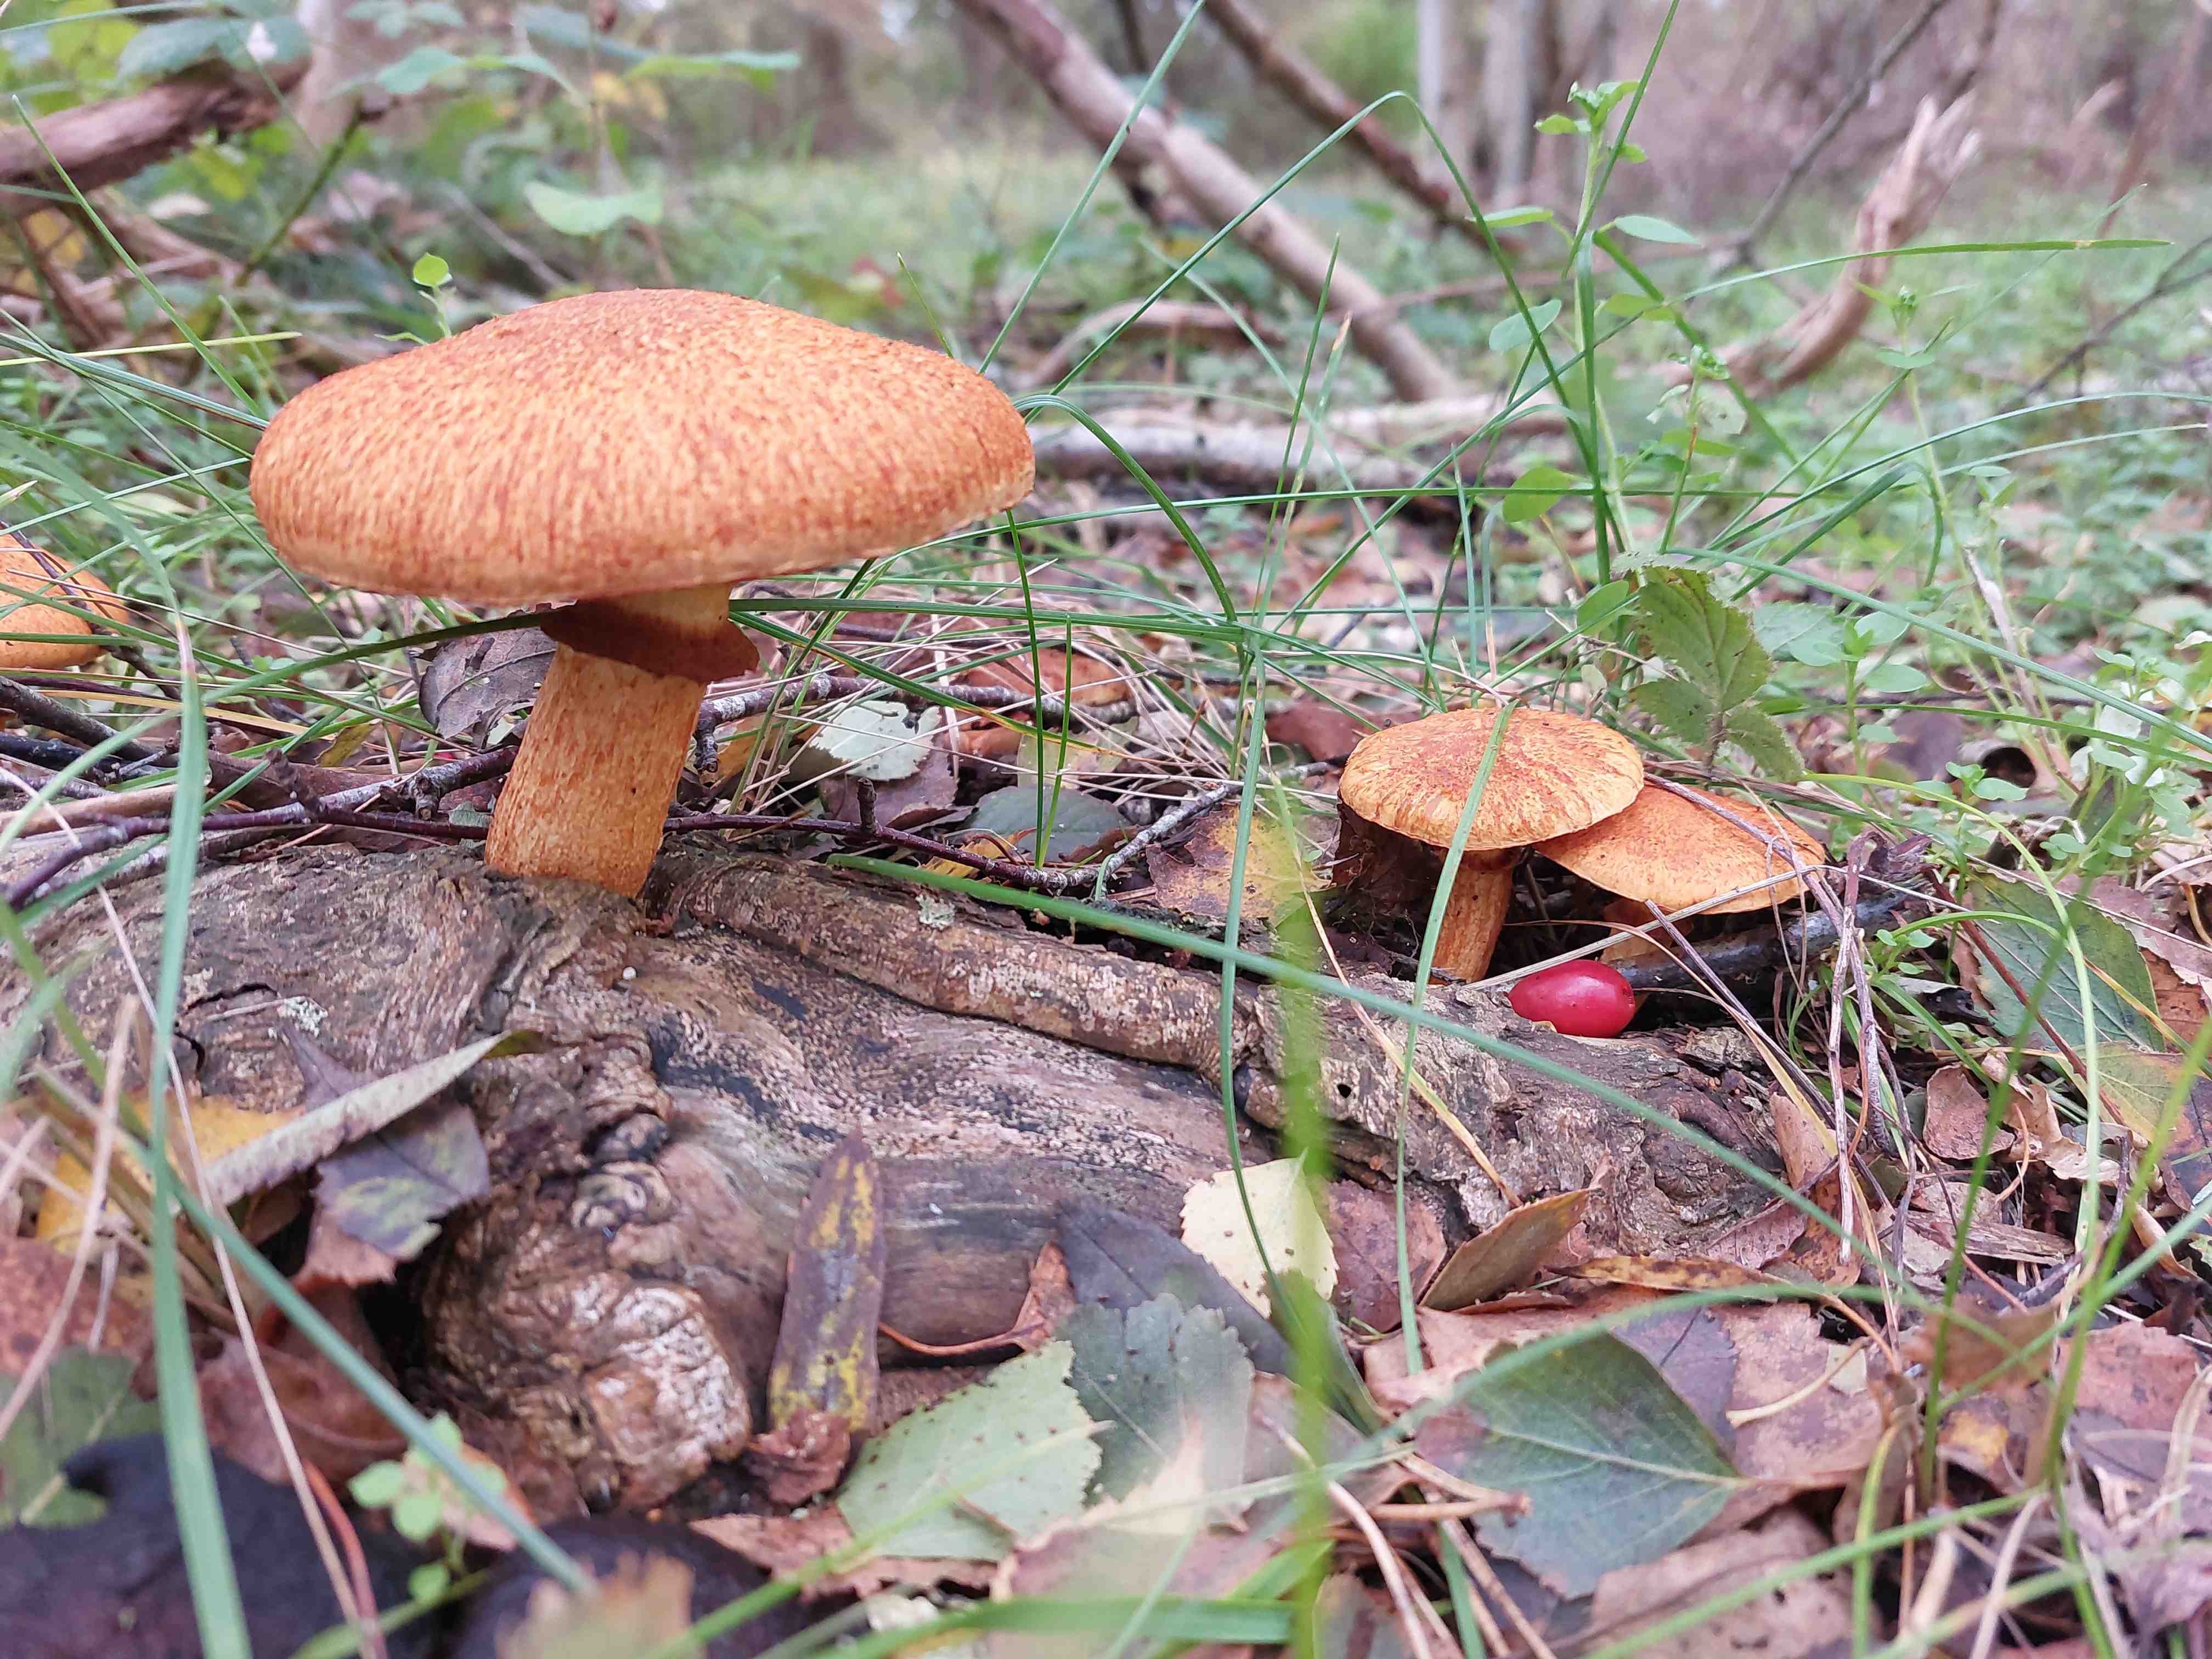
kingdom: Fungi
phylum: Basidiomycota
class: Agaricomycetes
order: Agaricales
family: Hymenogastraceae
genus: Gymnopilus
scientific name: Gymnopilus spectabilis
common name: fibret flammehat
